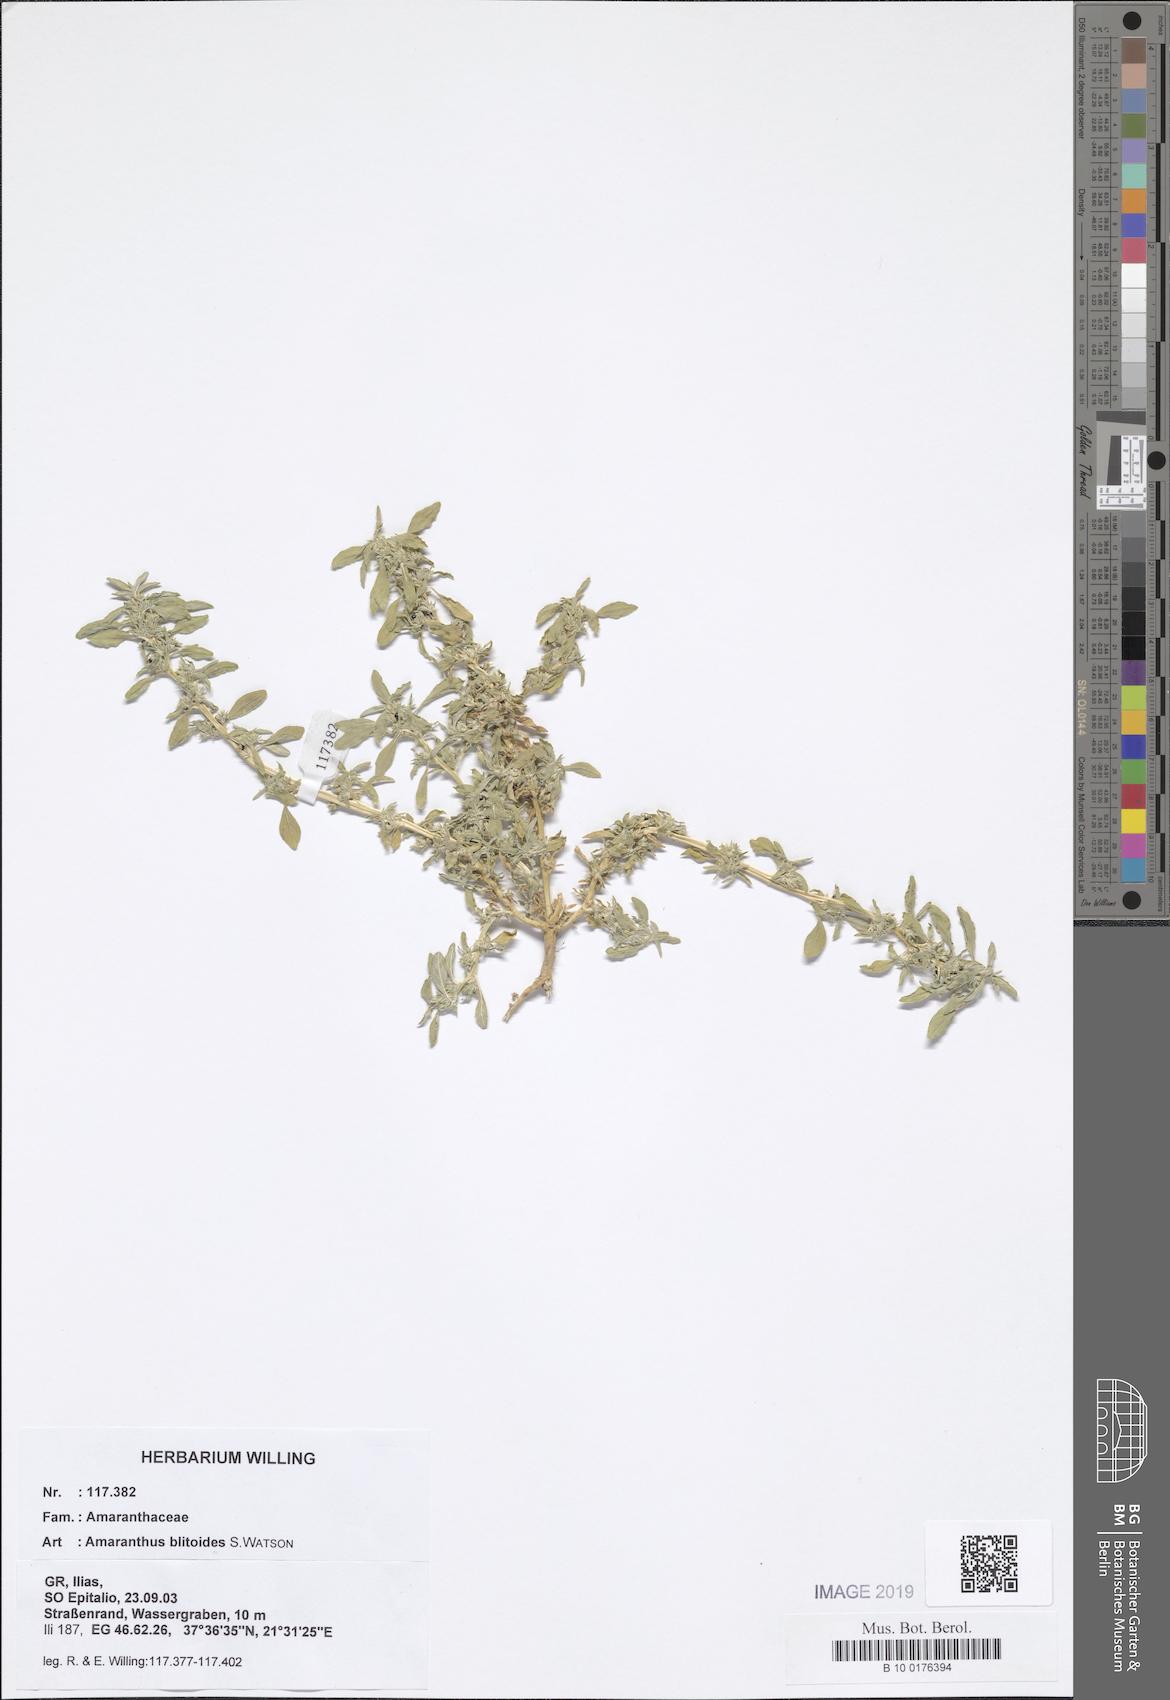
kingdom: Plantae
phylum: Tracheophyta
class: Magnoliopsida
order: Caryophyllales
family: Amaranthaceae
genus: Amaranthus
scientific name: Amaranthus blitoides
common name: Prostrate pigweed
